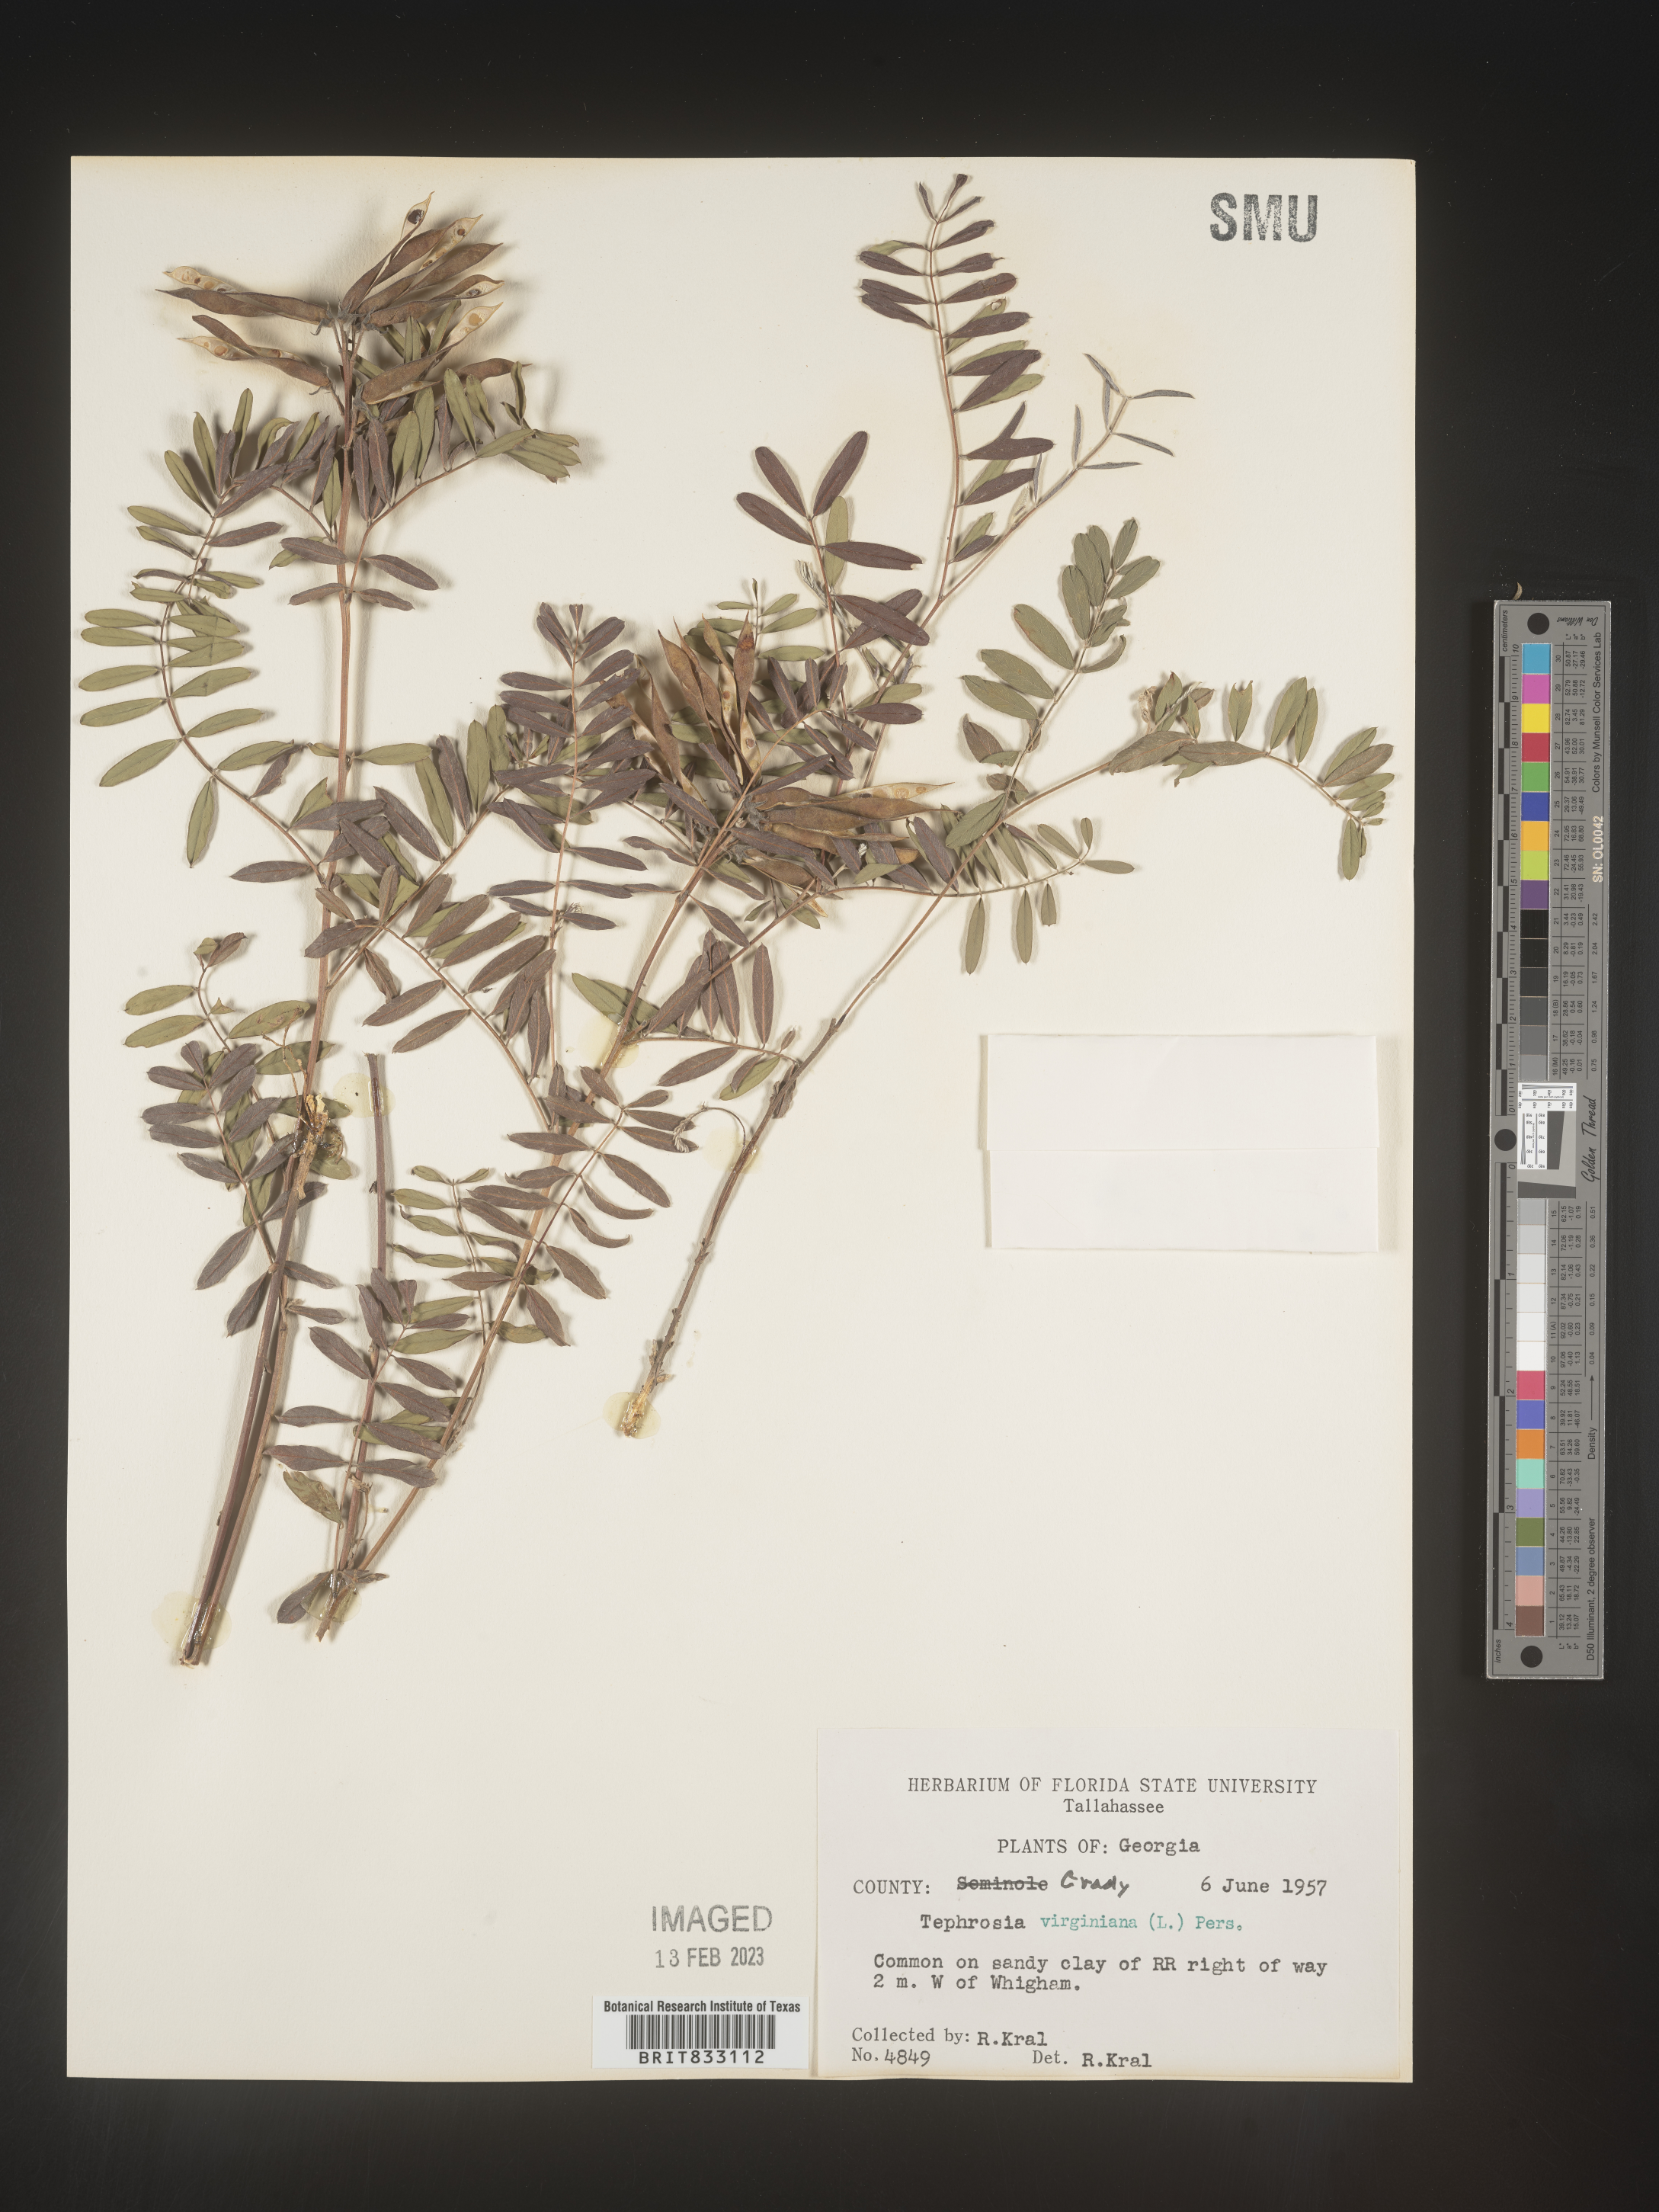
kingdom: Plantae
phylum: Tracheophyta
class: Magnoliopsida
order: Fabales
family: Fabaceae
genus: Tephrosia
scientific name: Tephrosia virginiana
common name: Rabbit-pea
